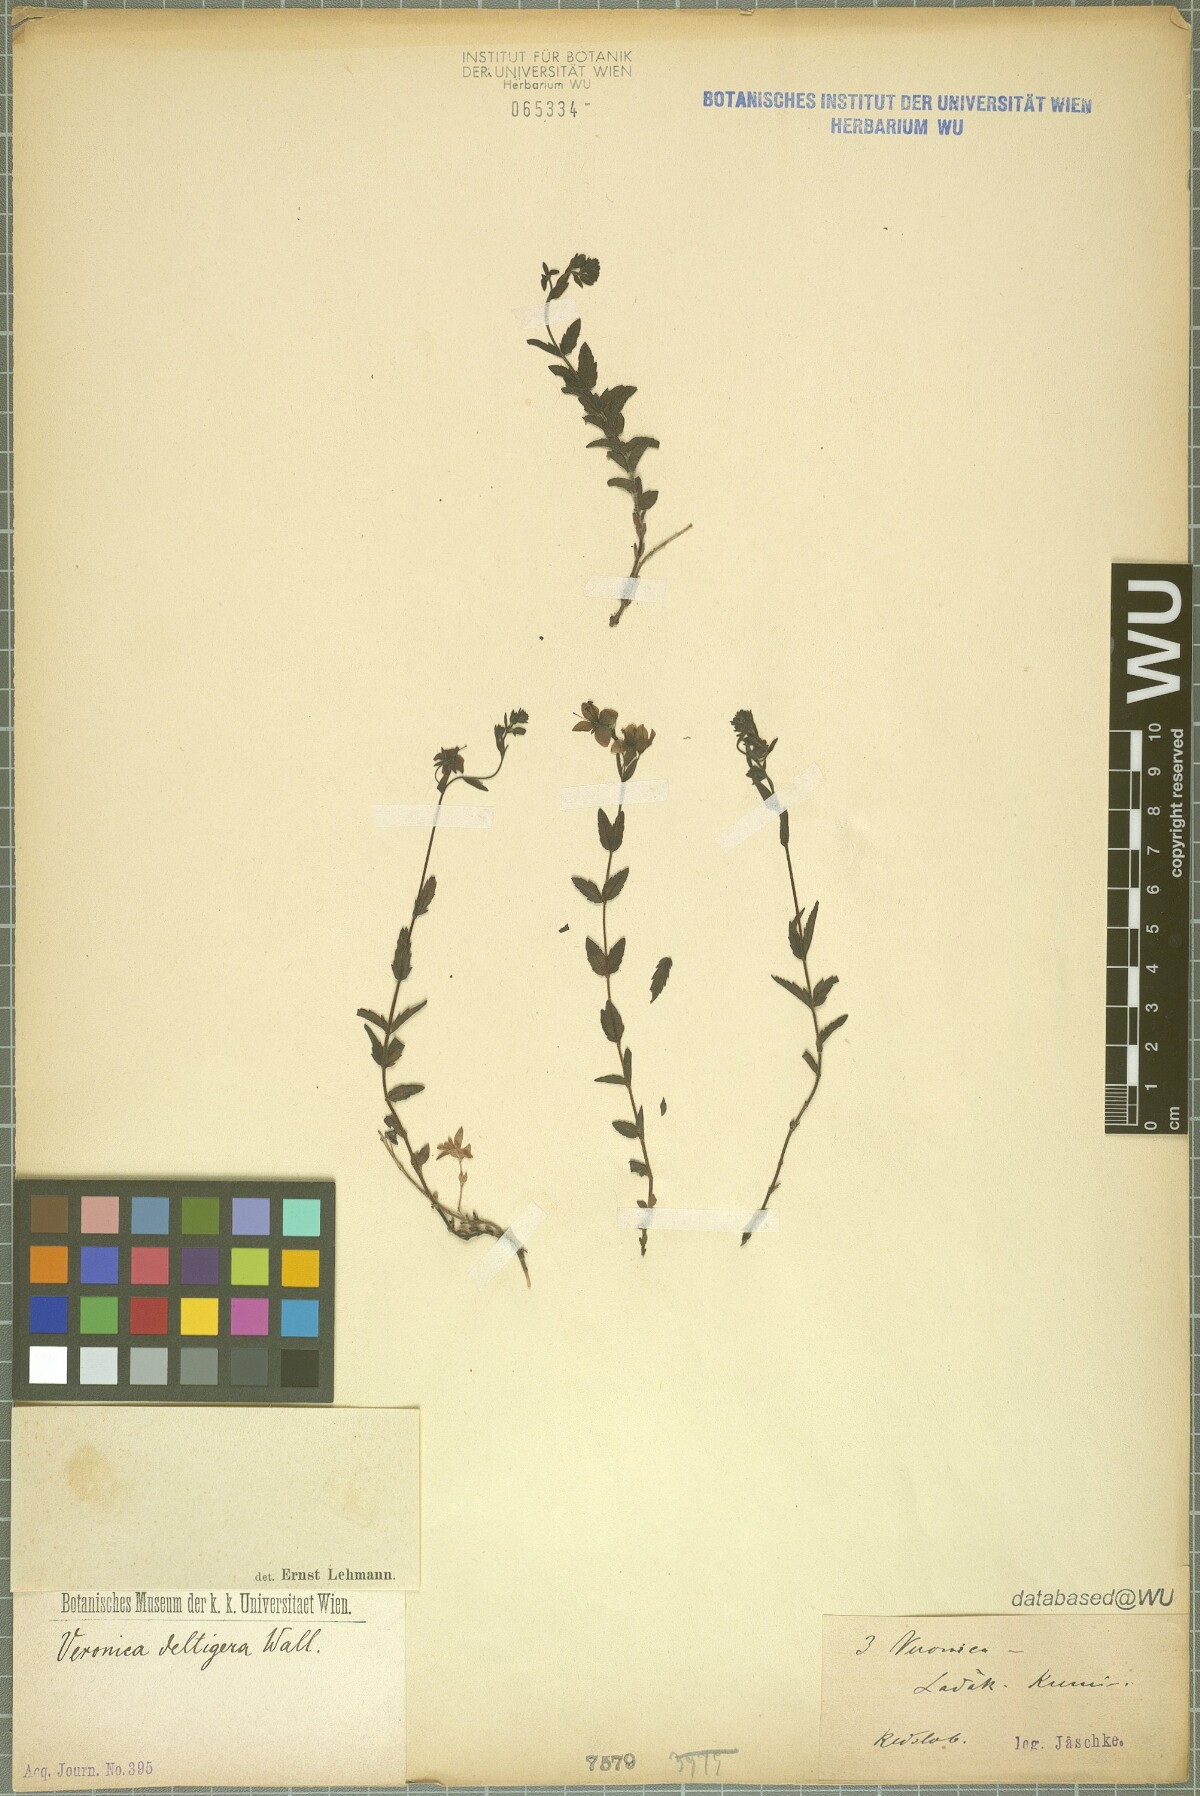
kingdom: Plantae
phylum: Tracheophyta
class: Magnoliopsida
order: Lamiales
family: Plantaginaceae
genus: Veronica
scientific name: Veronica deltigera
